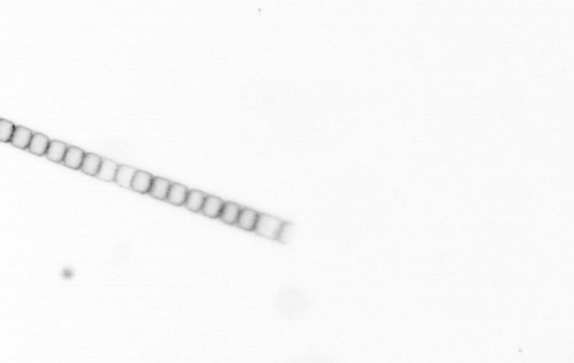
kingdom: Chromista
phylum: Ochrophyta
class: Bacillariophyceae
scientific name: Bacillariophyceae
